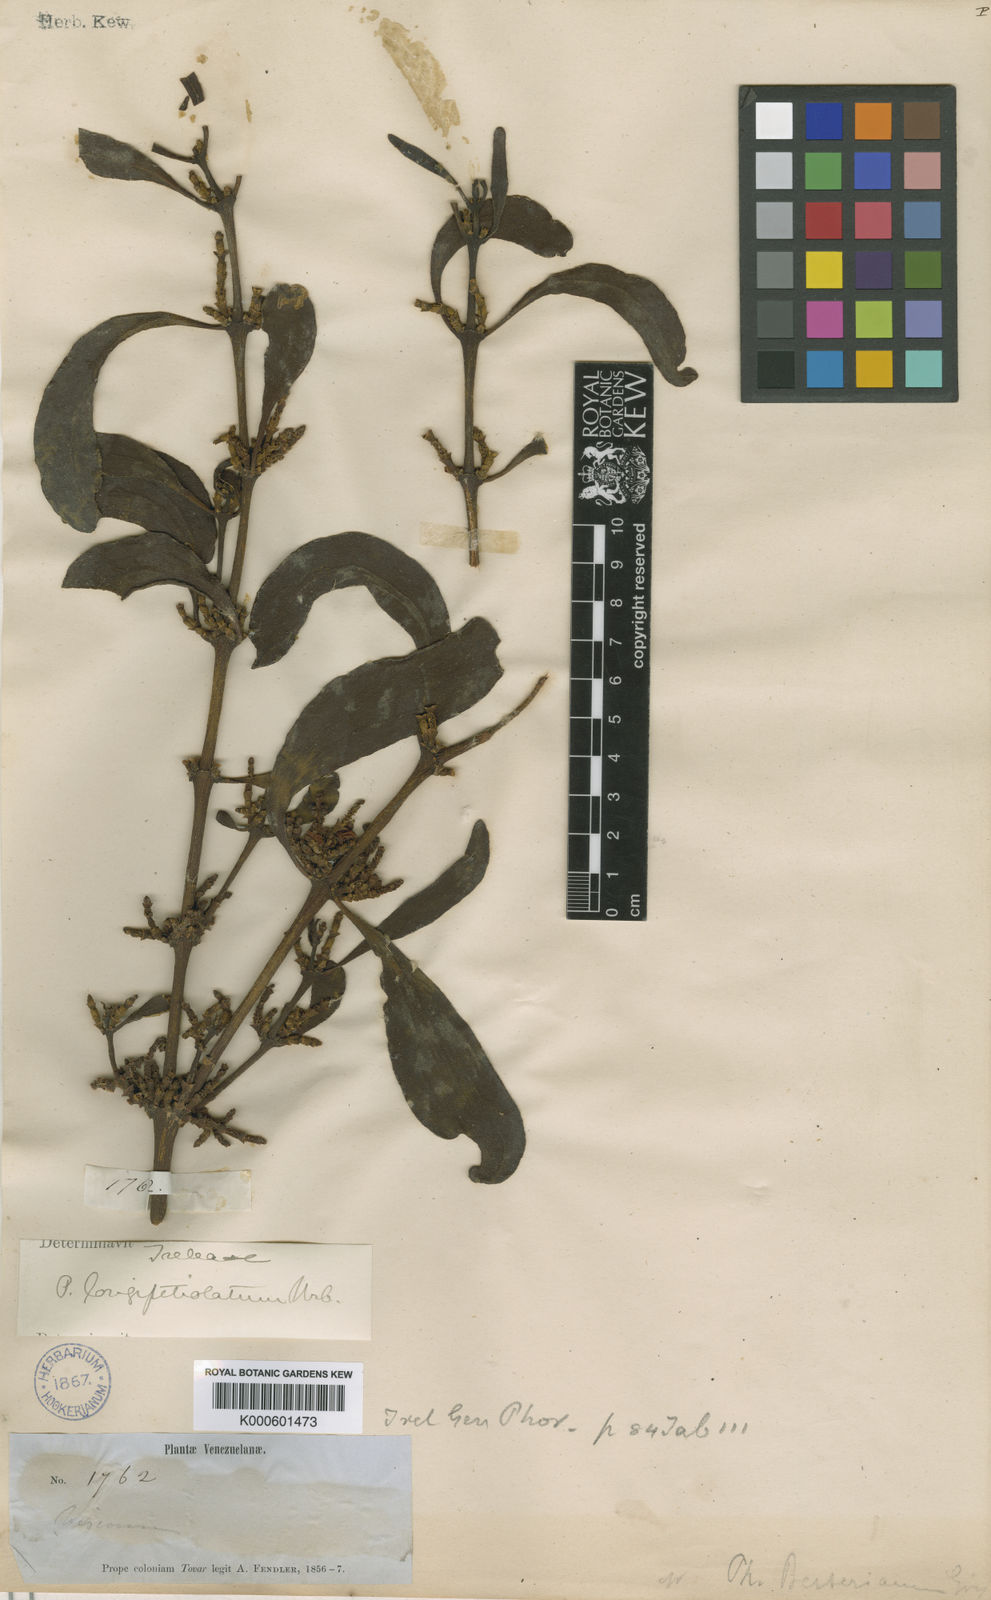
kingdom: Plantae
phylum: Tracheophyta
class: Magnoliopsida
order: Santalales
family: Viscaceae
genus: Phoradendron
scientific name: Phoradendron longipetiolatum
